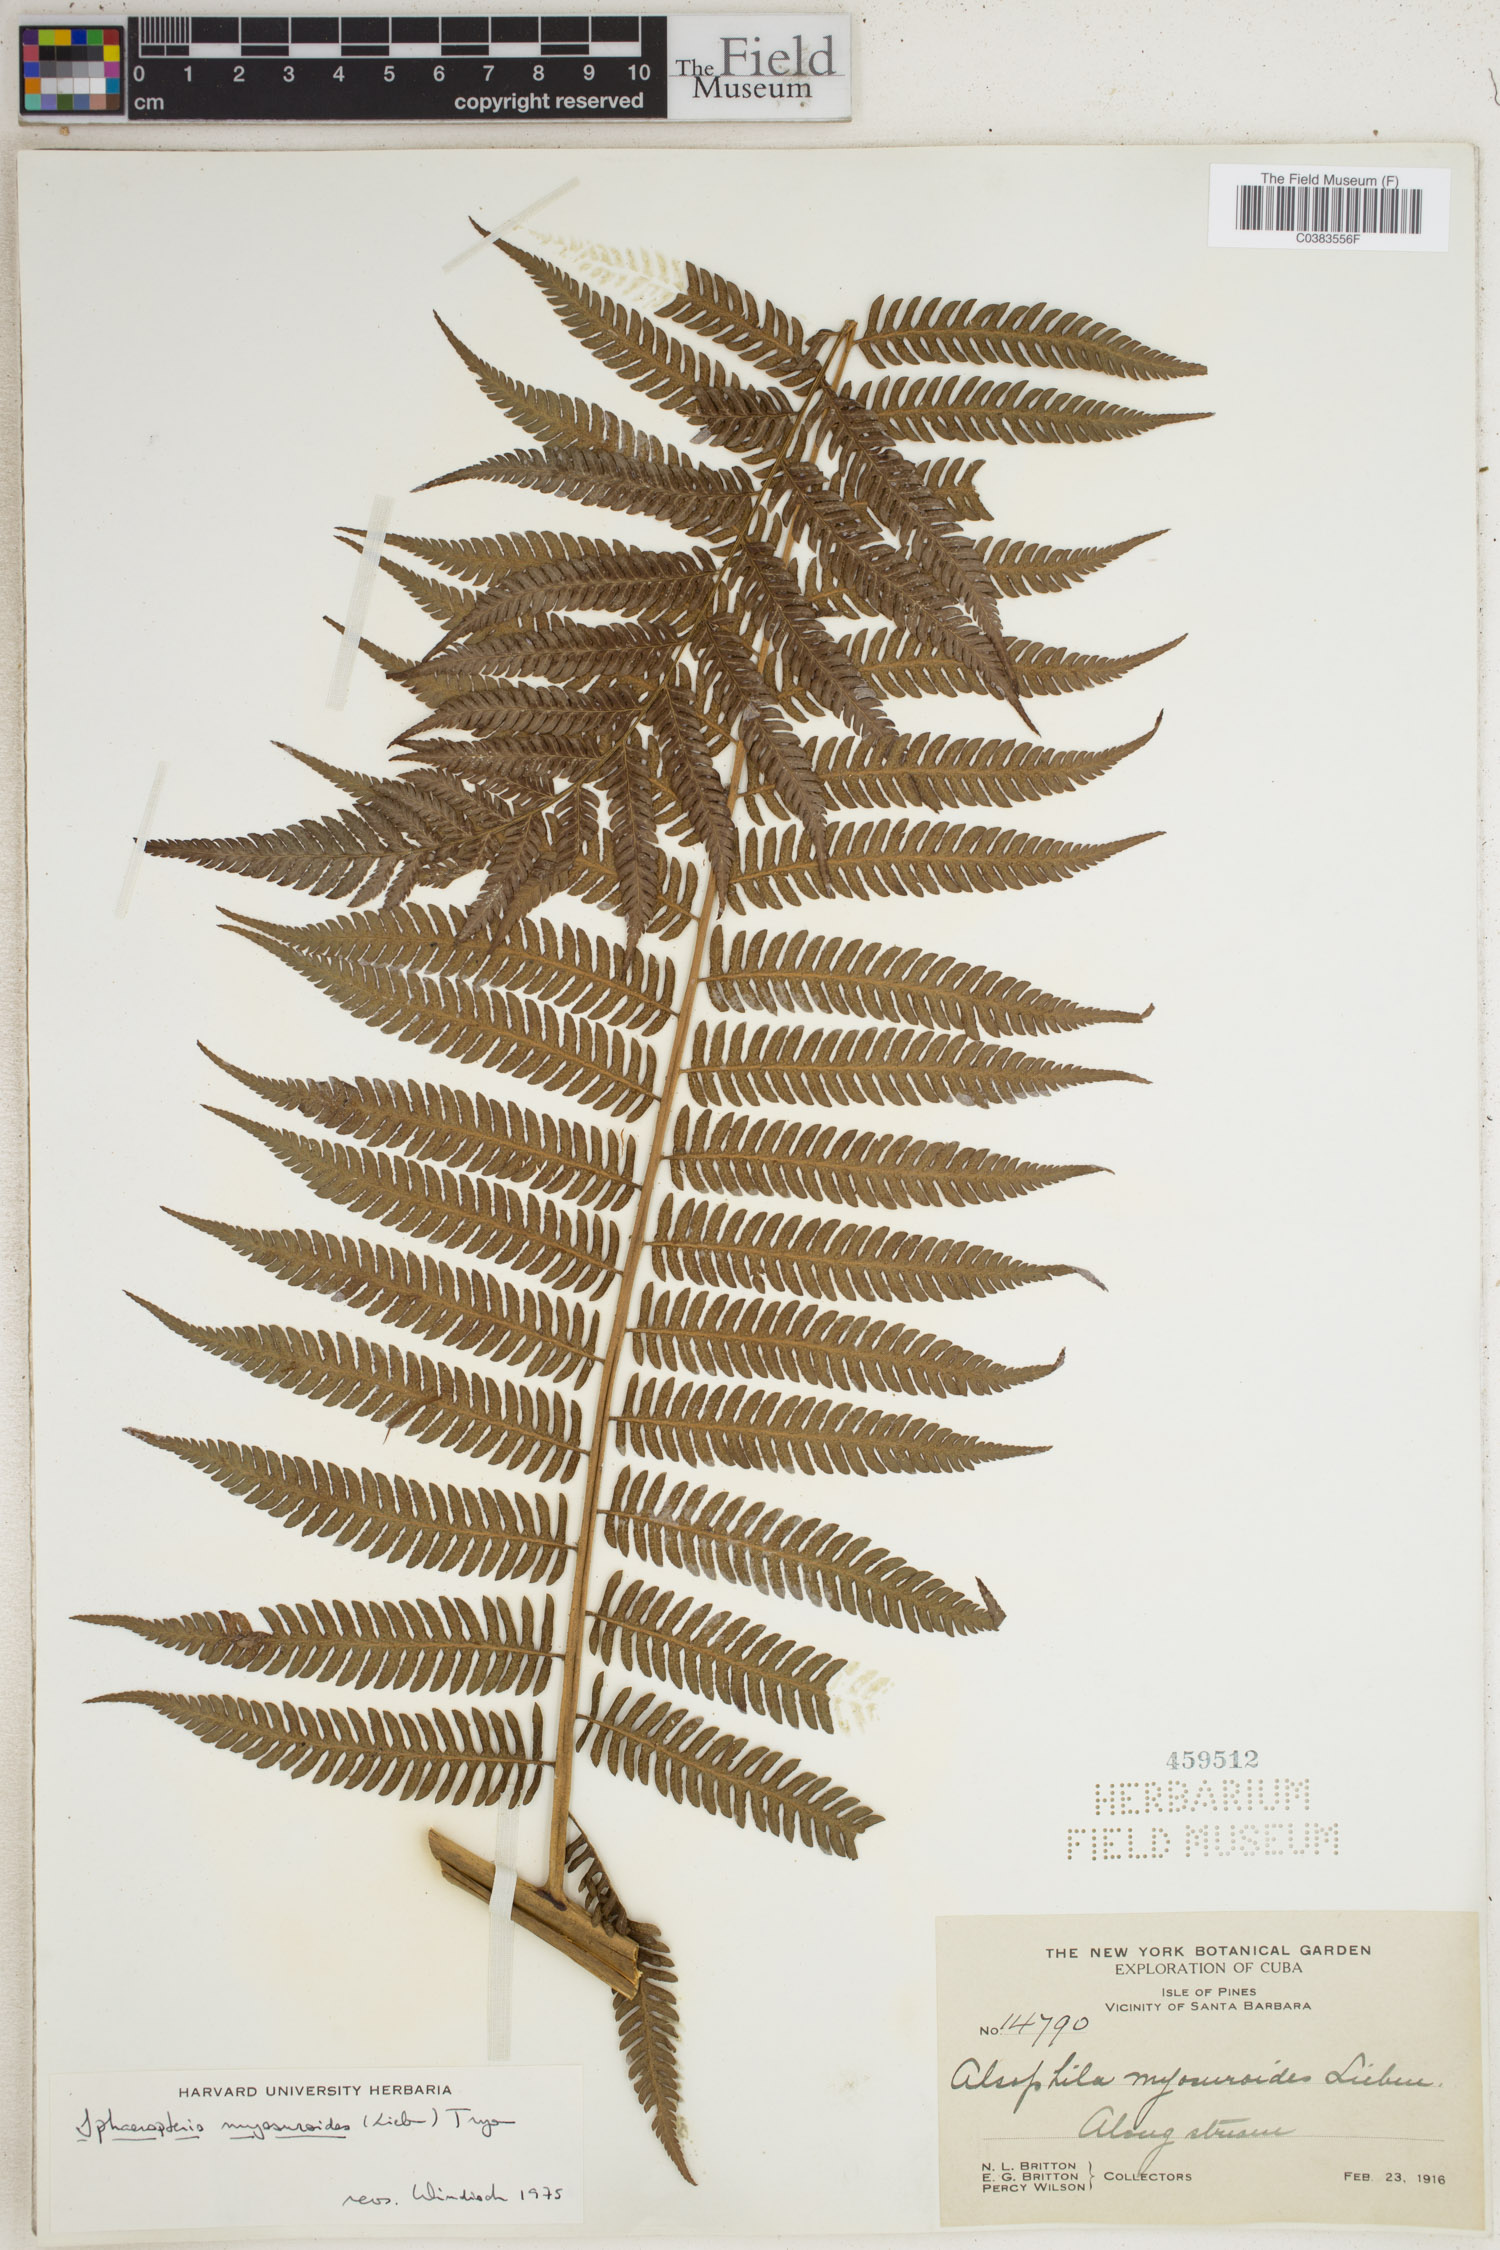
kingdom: Plantae
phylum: Tracheophyta
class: Polypodiopsida
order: Cyatheales
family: Cyatheaceae
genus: Sphaeropteris
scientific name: Sphaeropteris myosuroides
